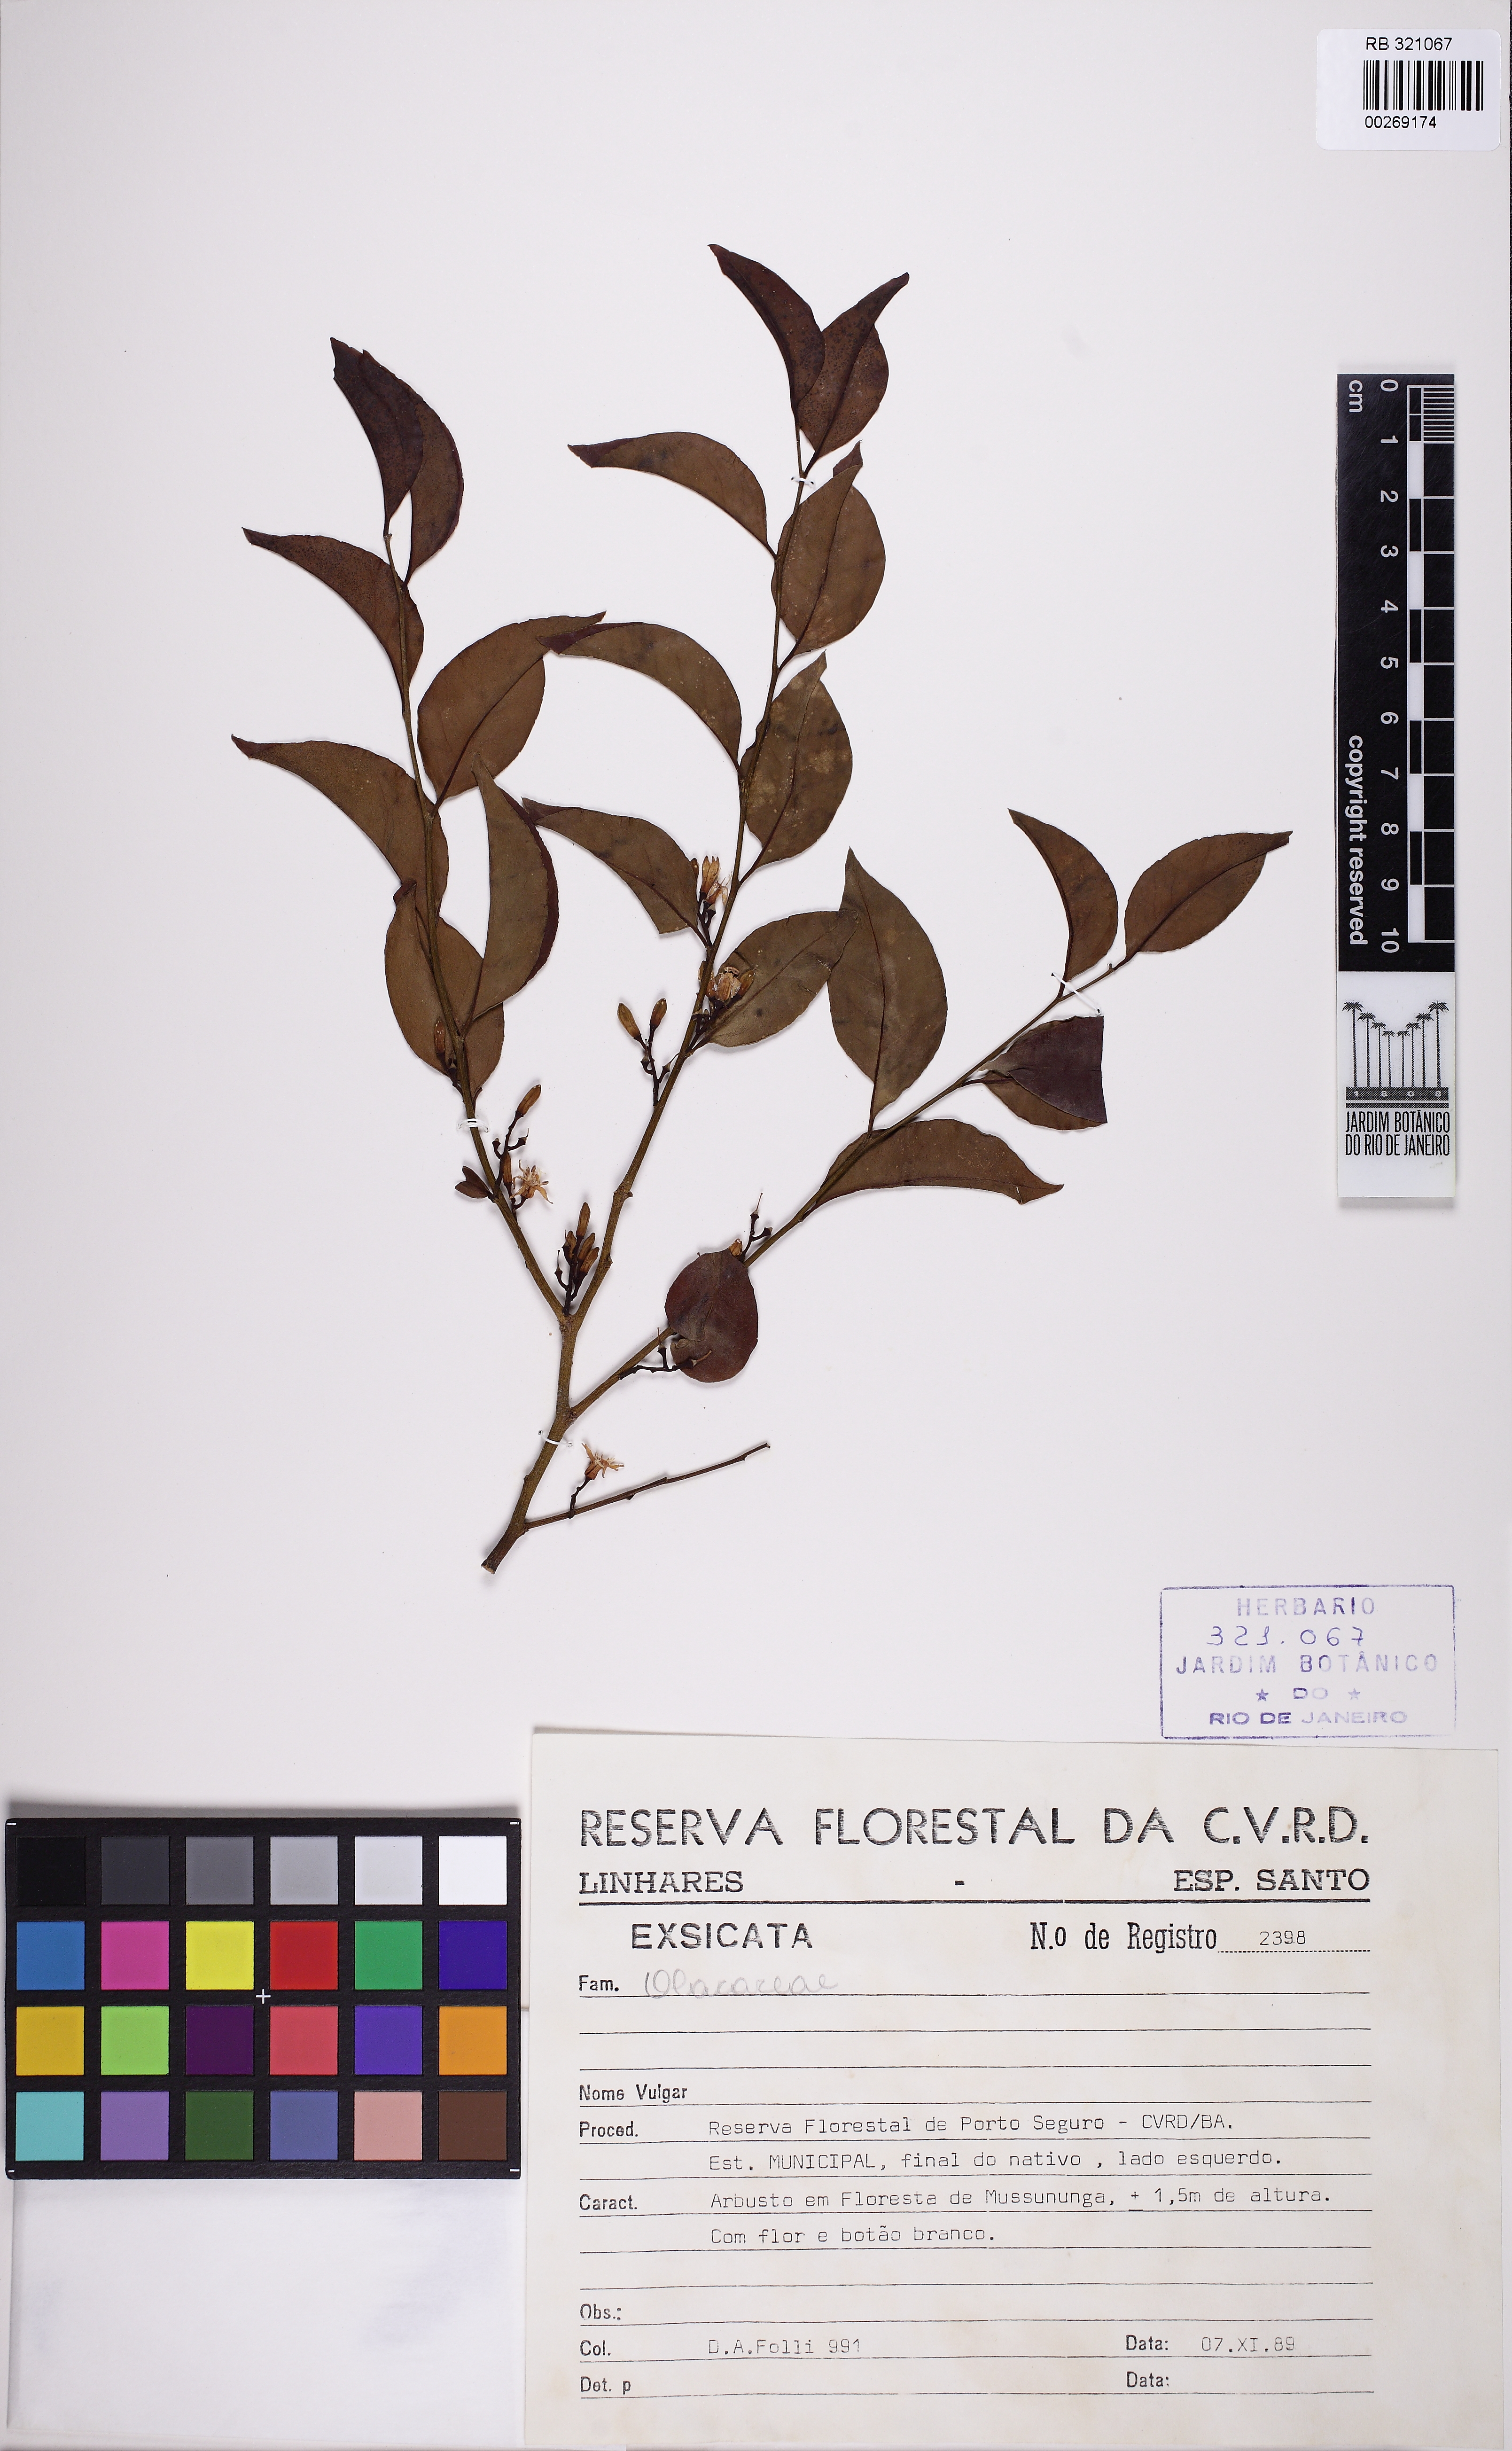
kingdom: Plantae
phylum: Tracheophyta
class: Magnoliopsida
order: Santalales
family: Olacaceae
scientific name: Olacaceae
